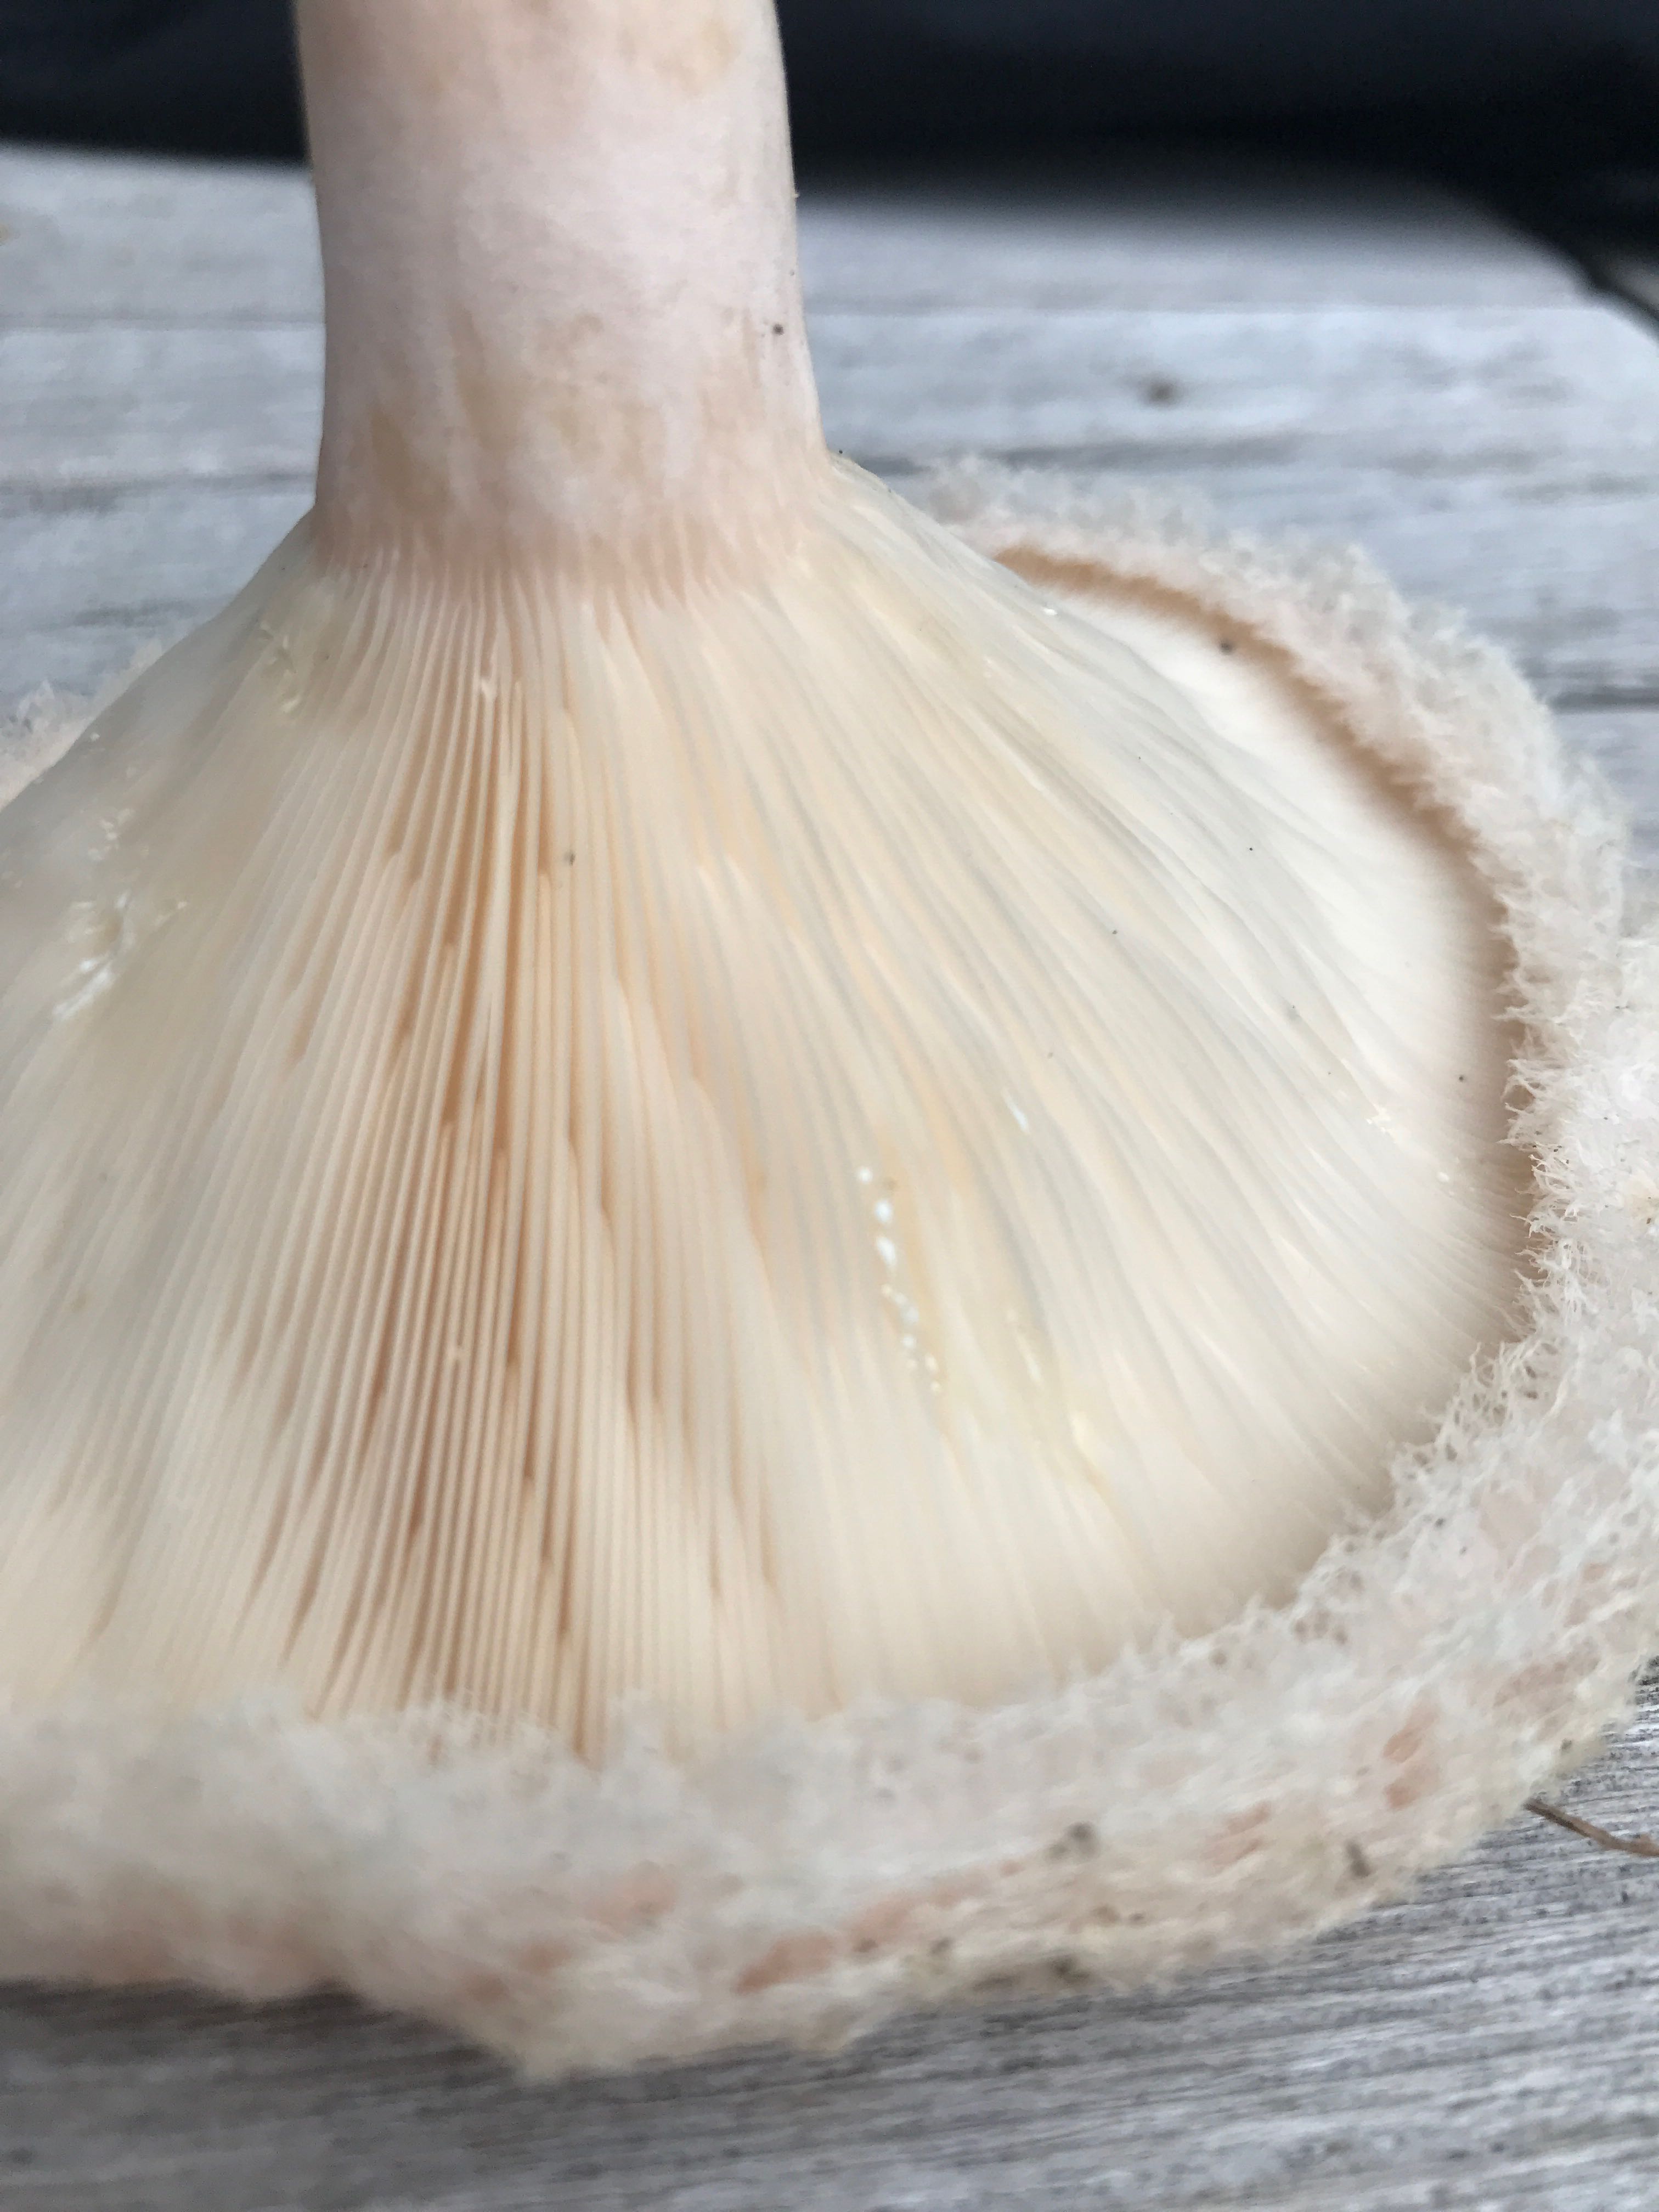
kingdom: Fungi
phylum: Basidiomycota
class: Agaricomycetes
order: Russulales
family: Russulaceae
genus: Lactarius
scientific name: Lactarius pubescens
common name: dunet mælkehat
